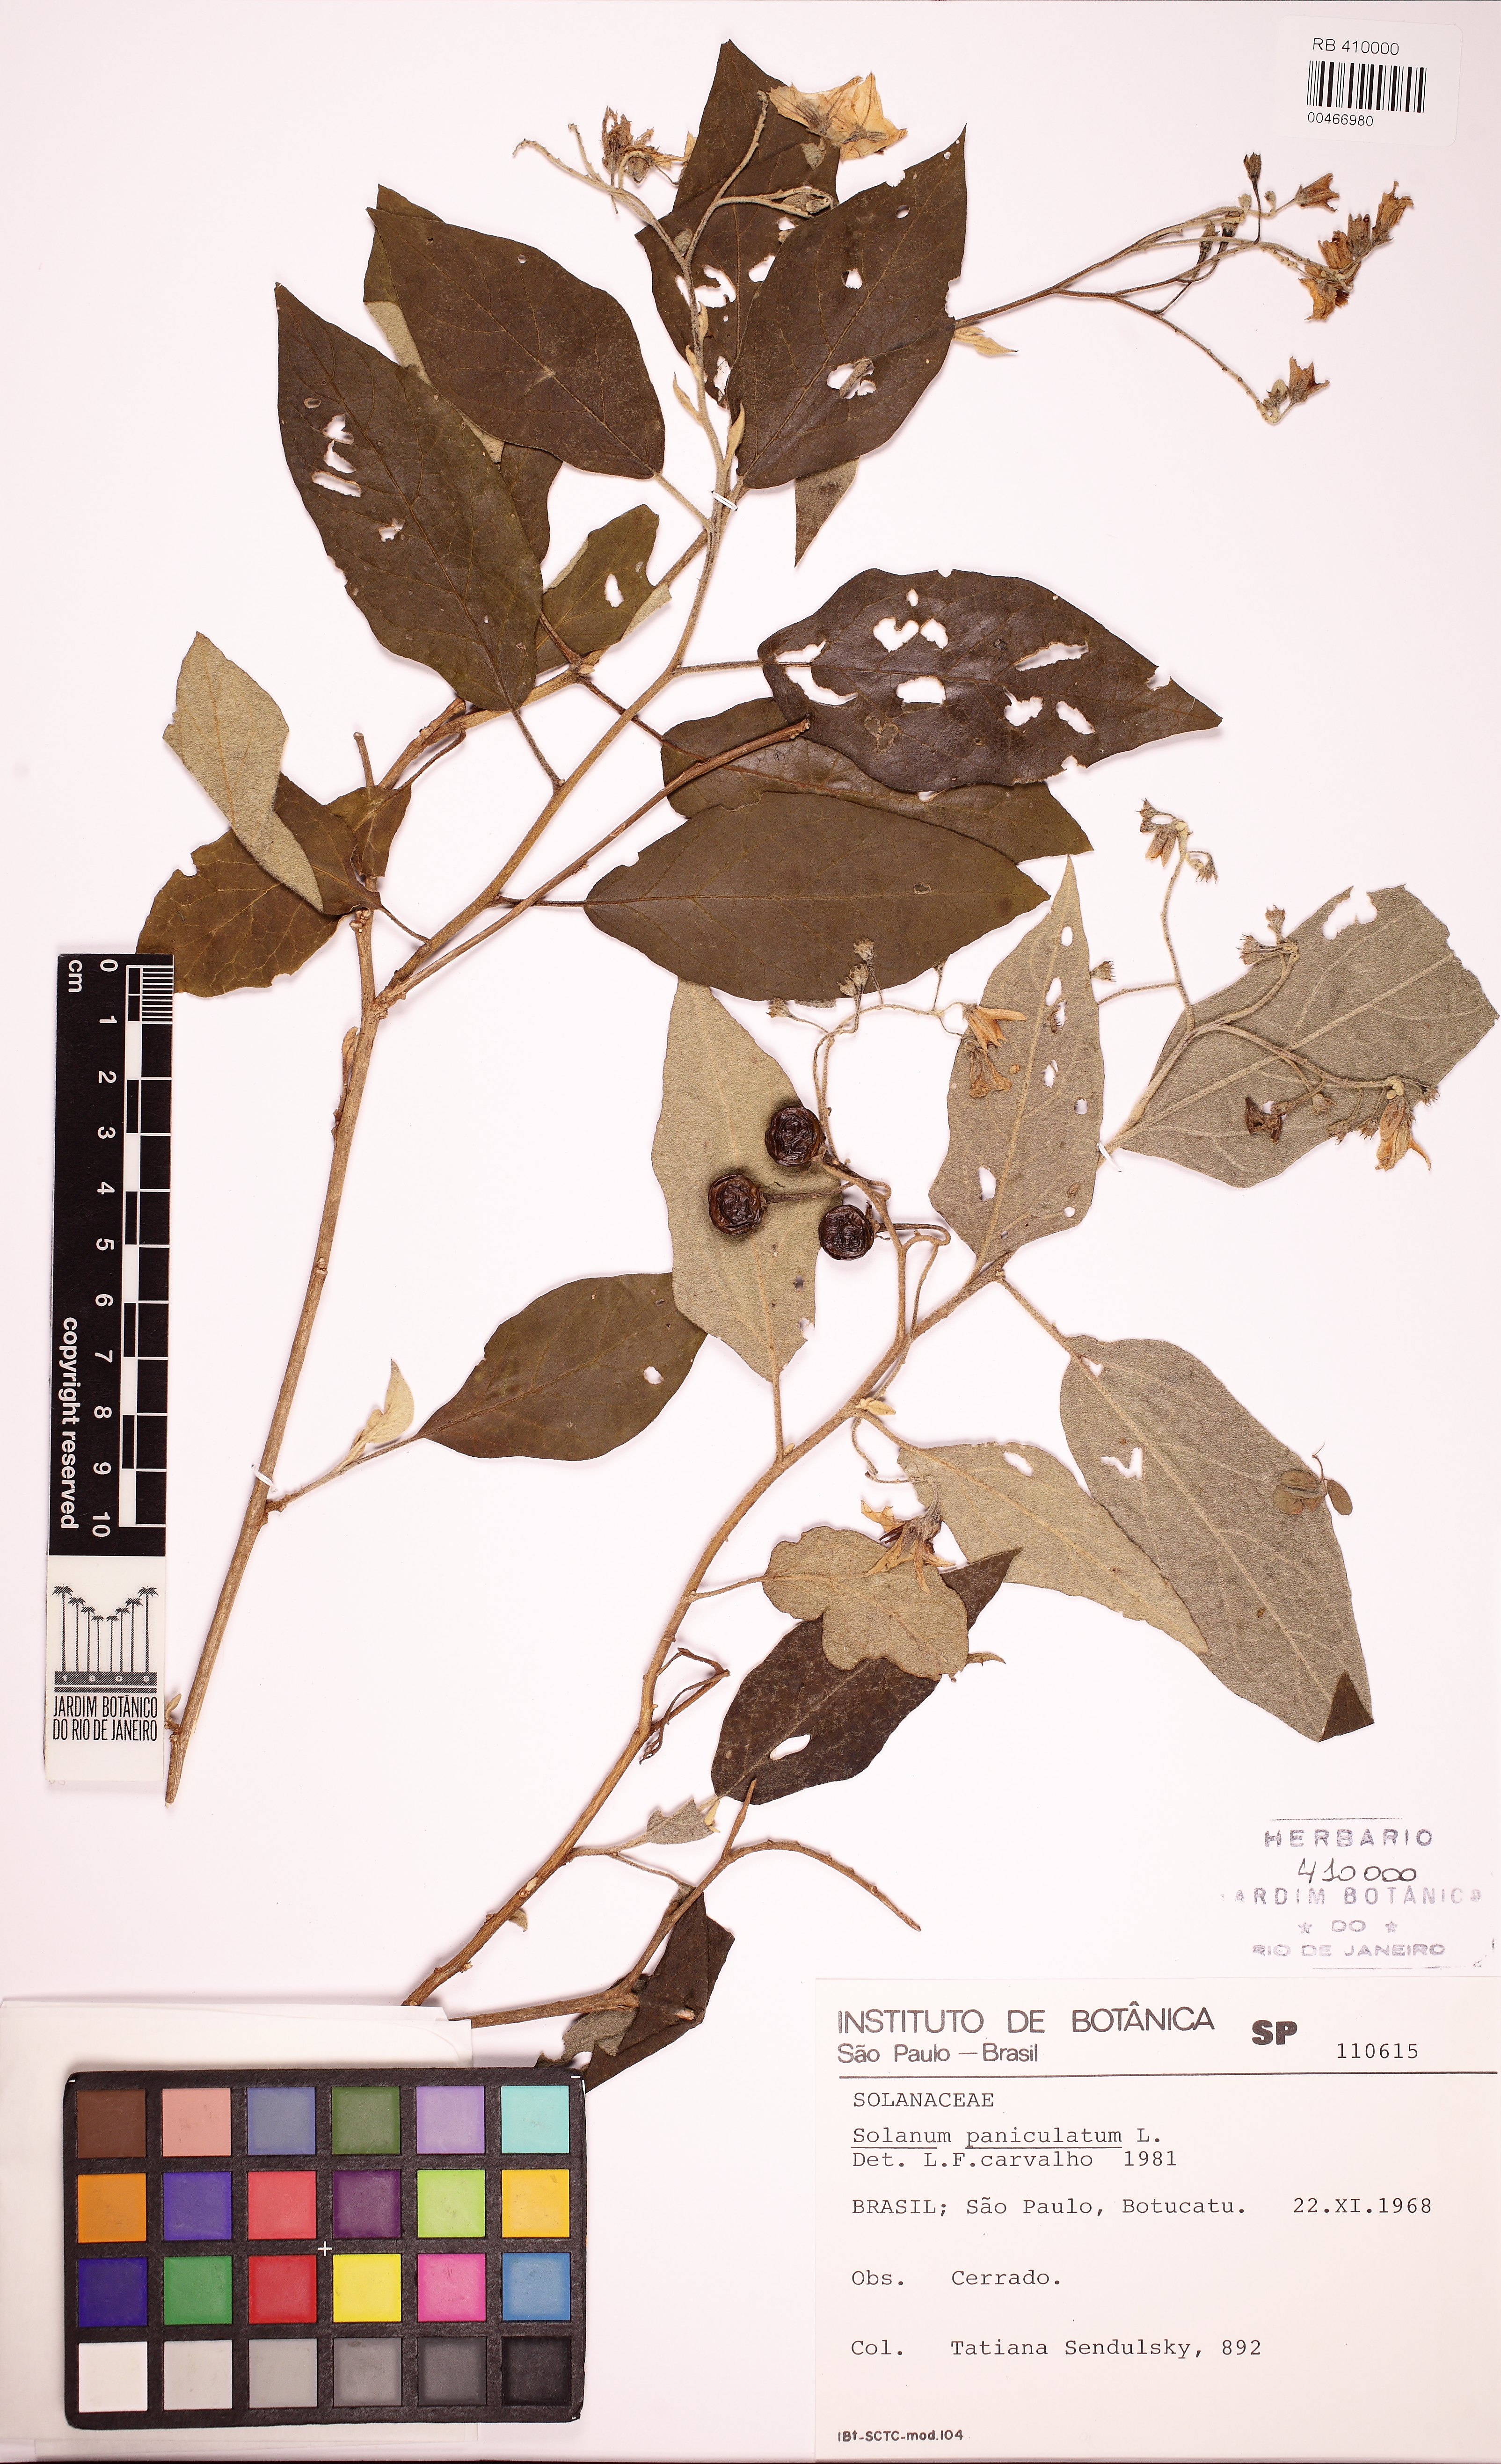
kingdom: Plantae
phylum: Tracheophyta
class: Magnoliopsida
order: Solanales
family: Solanaceae
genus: Solanum
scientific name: Solanum paniculatum
